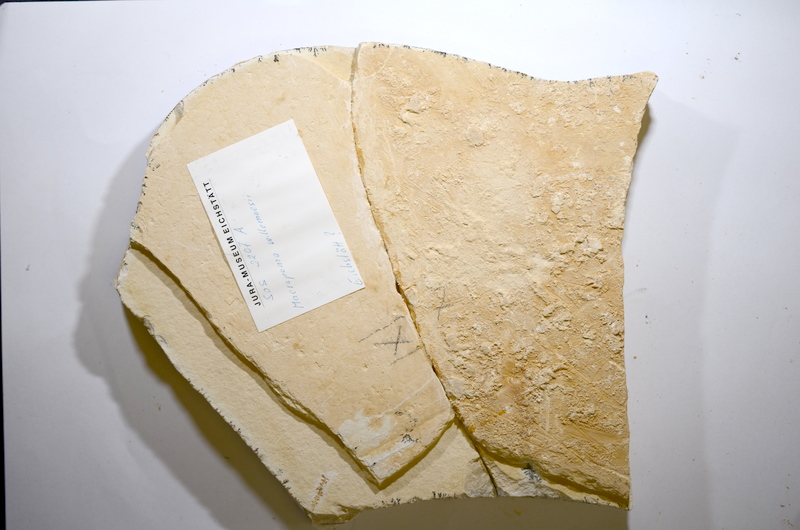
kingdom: Animalia
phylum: Chordata
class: Coelacanthi
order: Coelacanthiformes
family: Latimeroidea
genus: Macropoma
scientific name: Macropoma willemoesii
